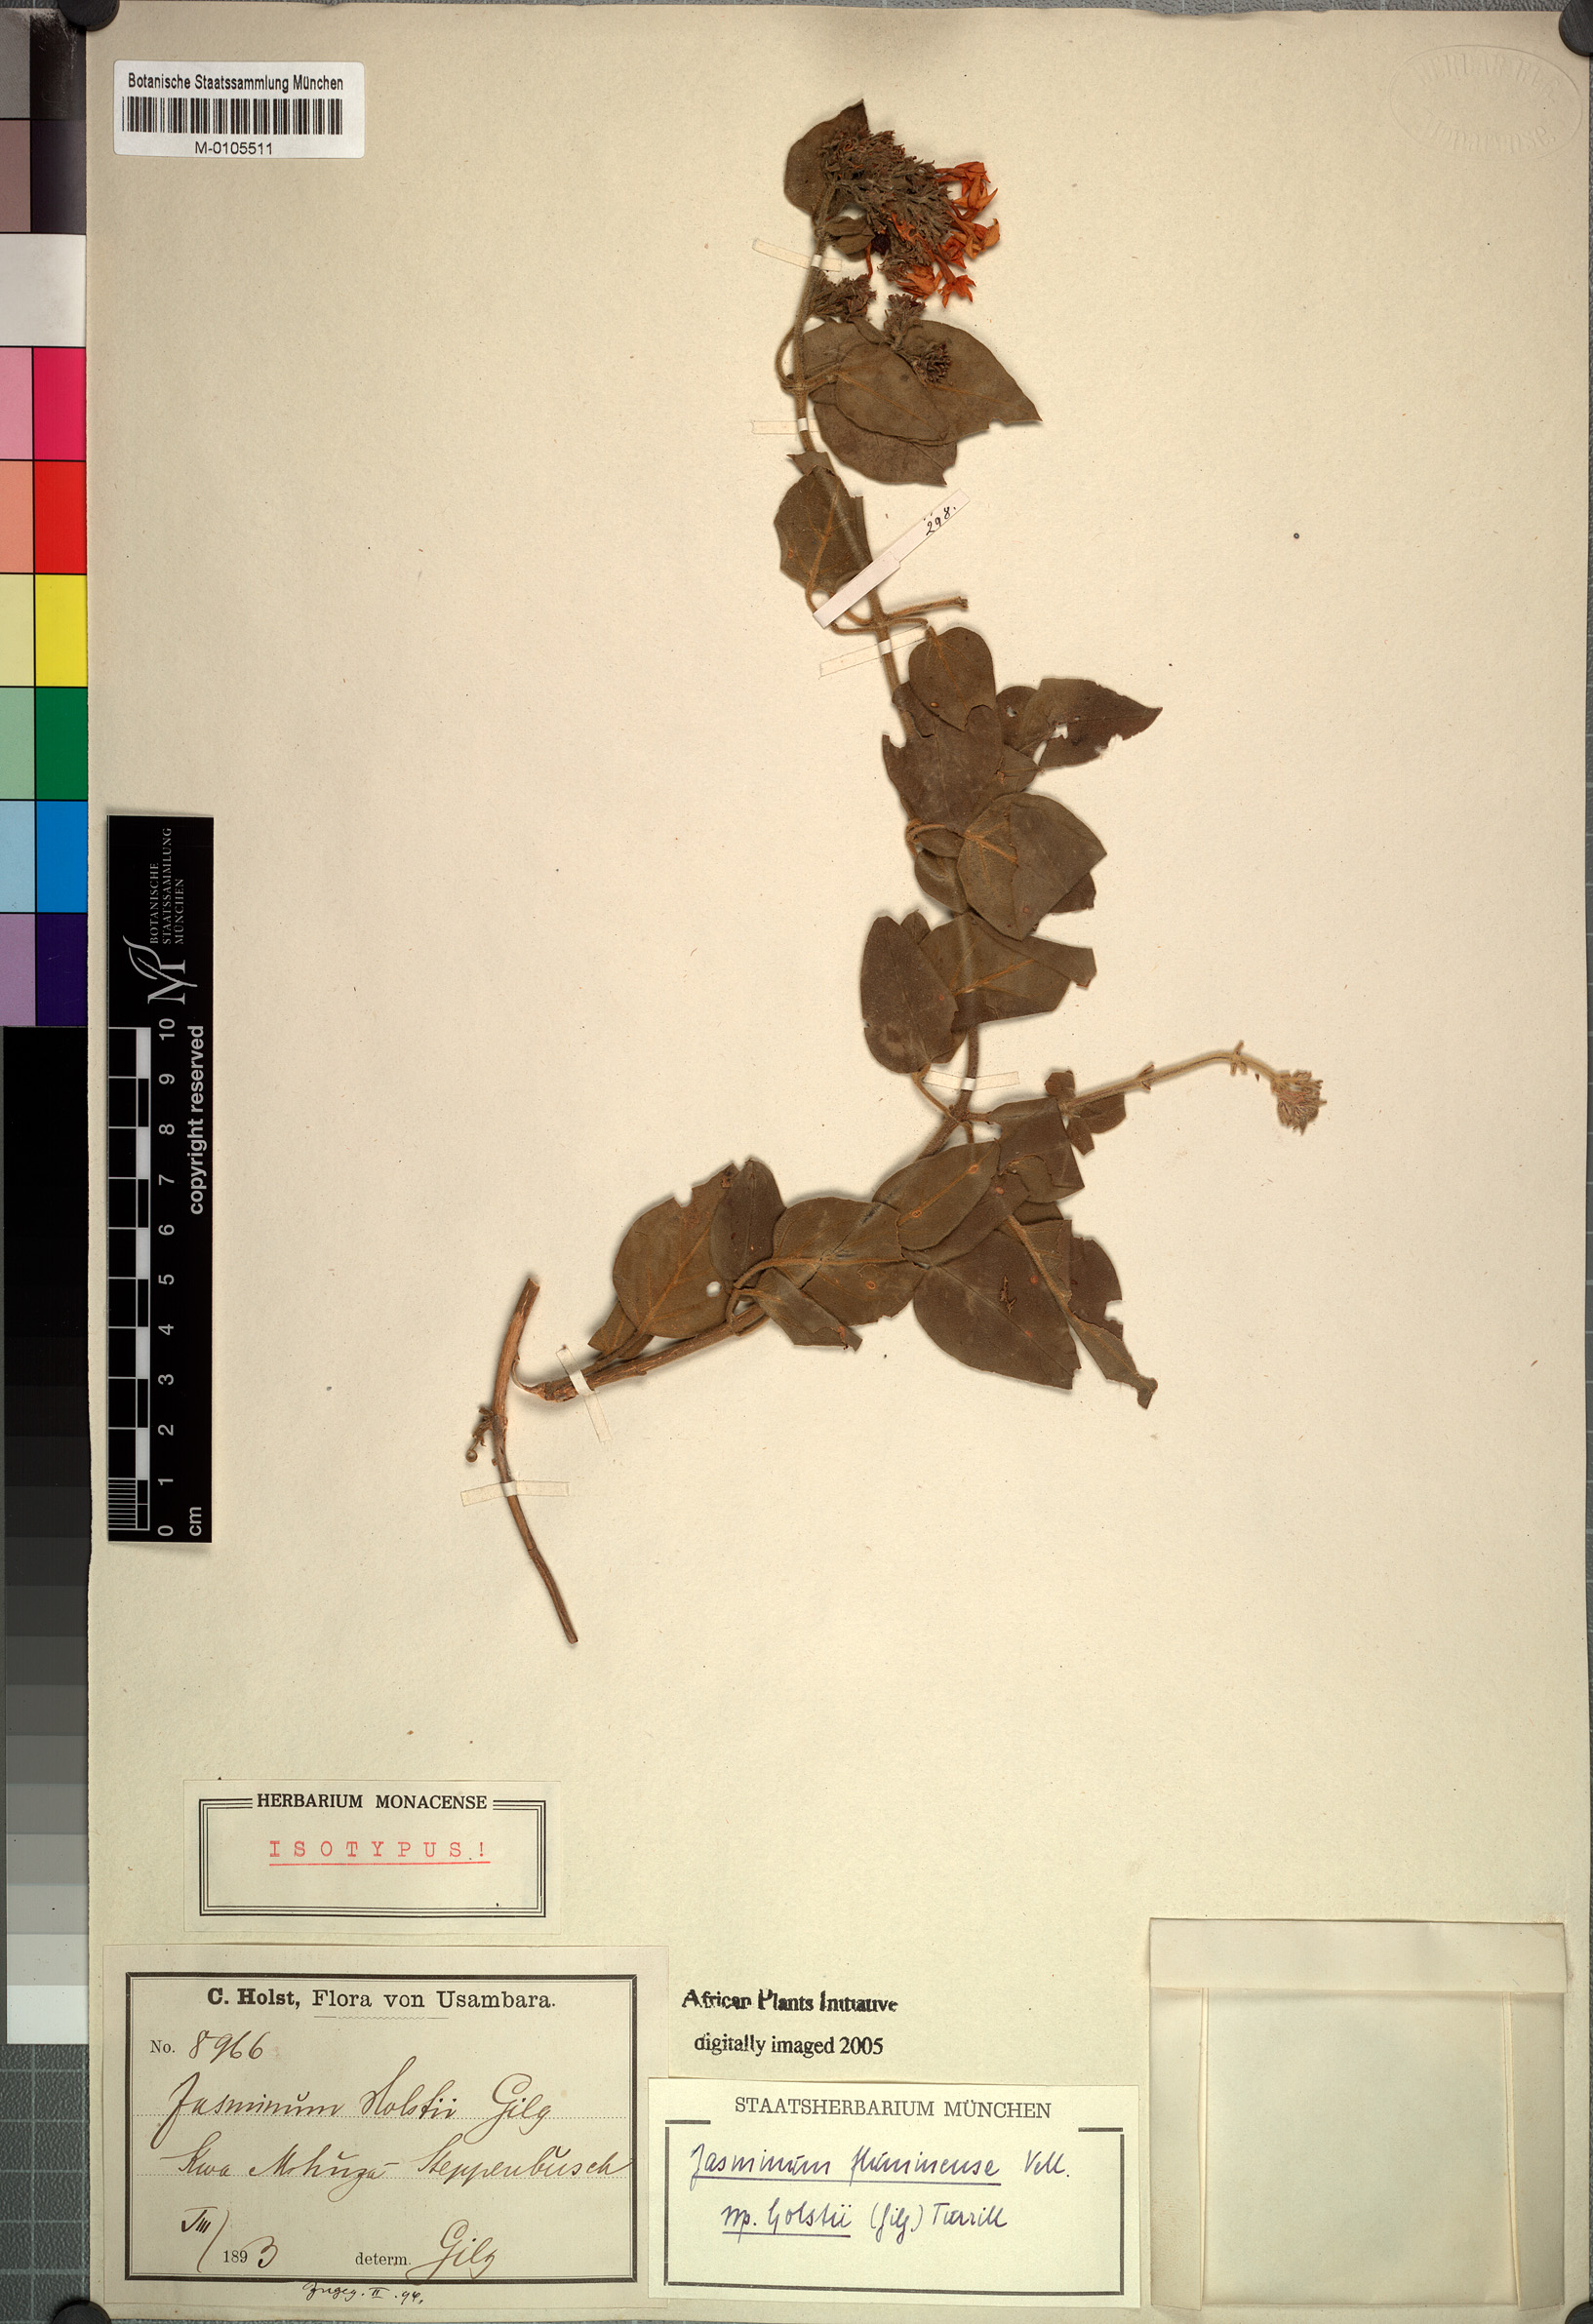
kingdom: Plantae
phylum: Tracheophyta
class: Magnoliopsida
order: Lamiales
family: Oleaceae
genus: Jasminum
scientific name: Jasminum fluminense
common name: Brazilian jasmine
